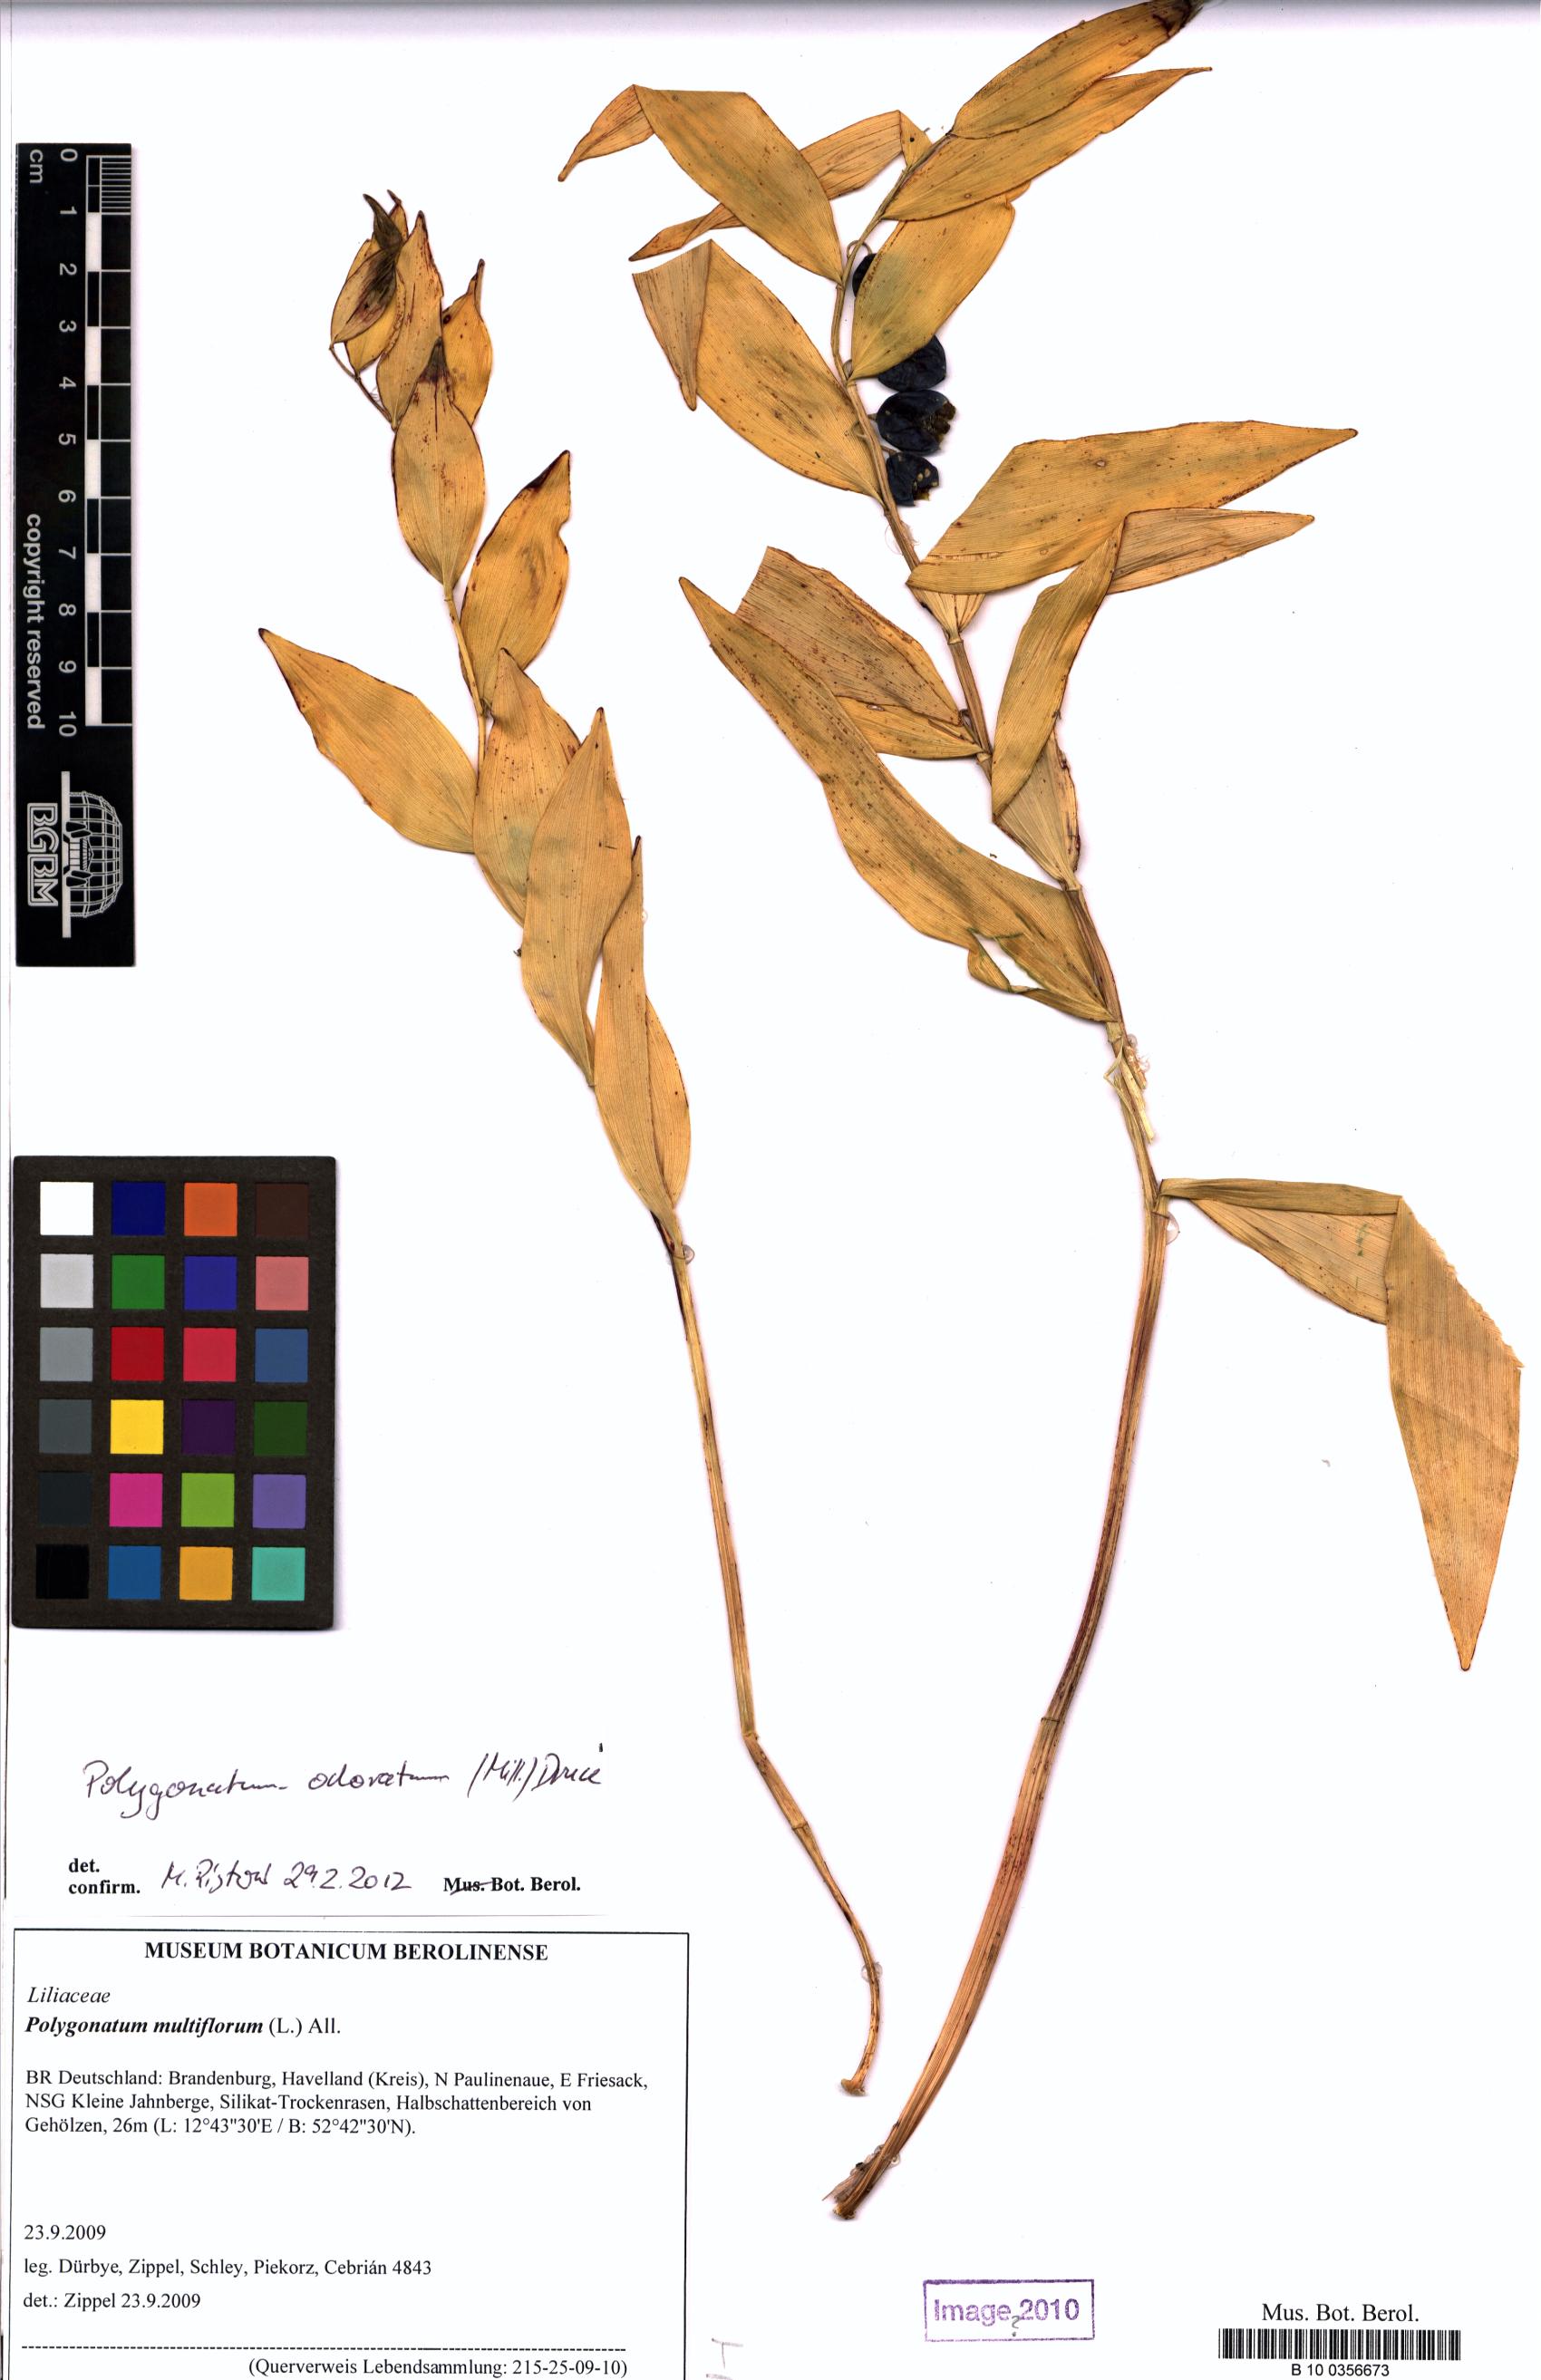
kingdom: Plantae
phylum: Tracheophyta
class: Liliopsida
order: Asparagales
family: Asparagaceae
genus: Polygonatum
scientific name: Polygonatum multiflorum
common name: Solomon's-seal
